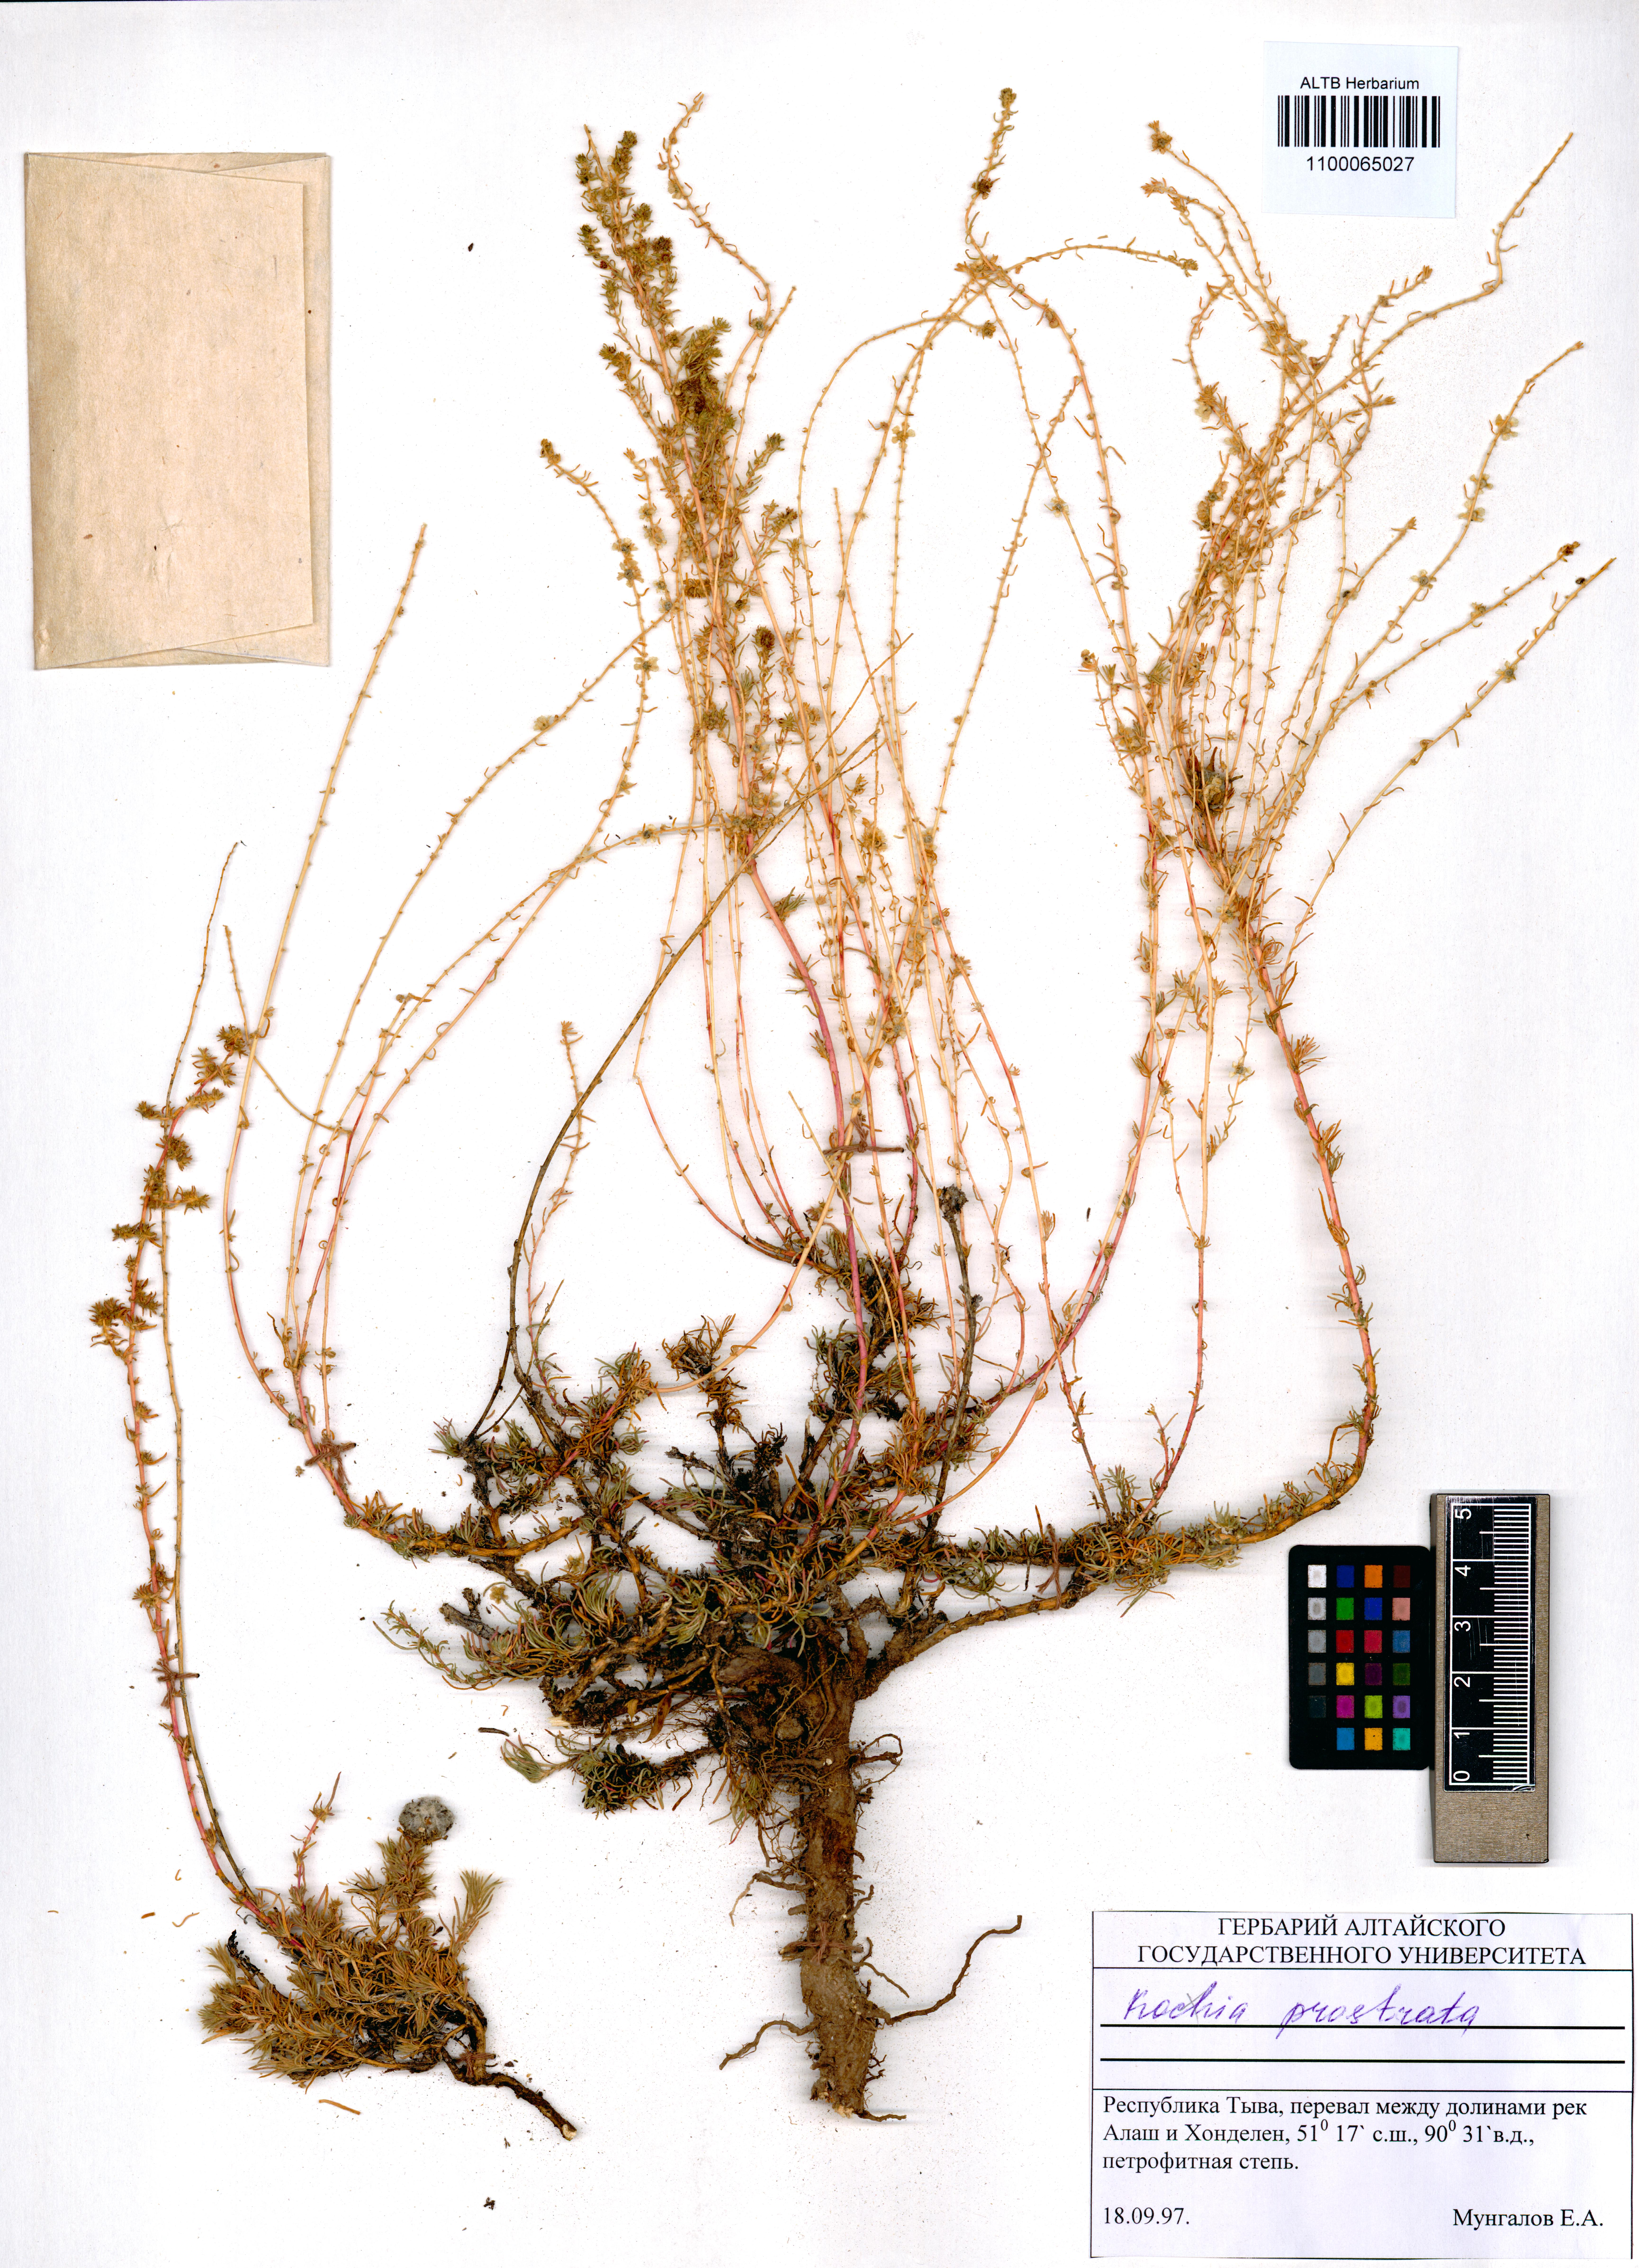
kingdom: Plantae
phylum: Tracheophyta
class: Magnoliopsida
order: Caryophyllales
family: Amaranthaceae
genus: Bassia
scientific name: Bassia prostrata
